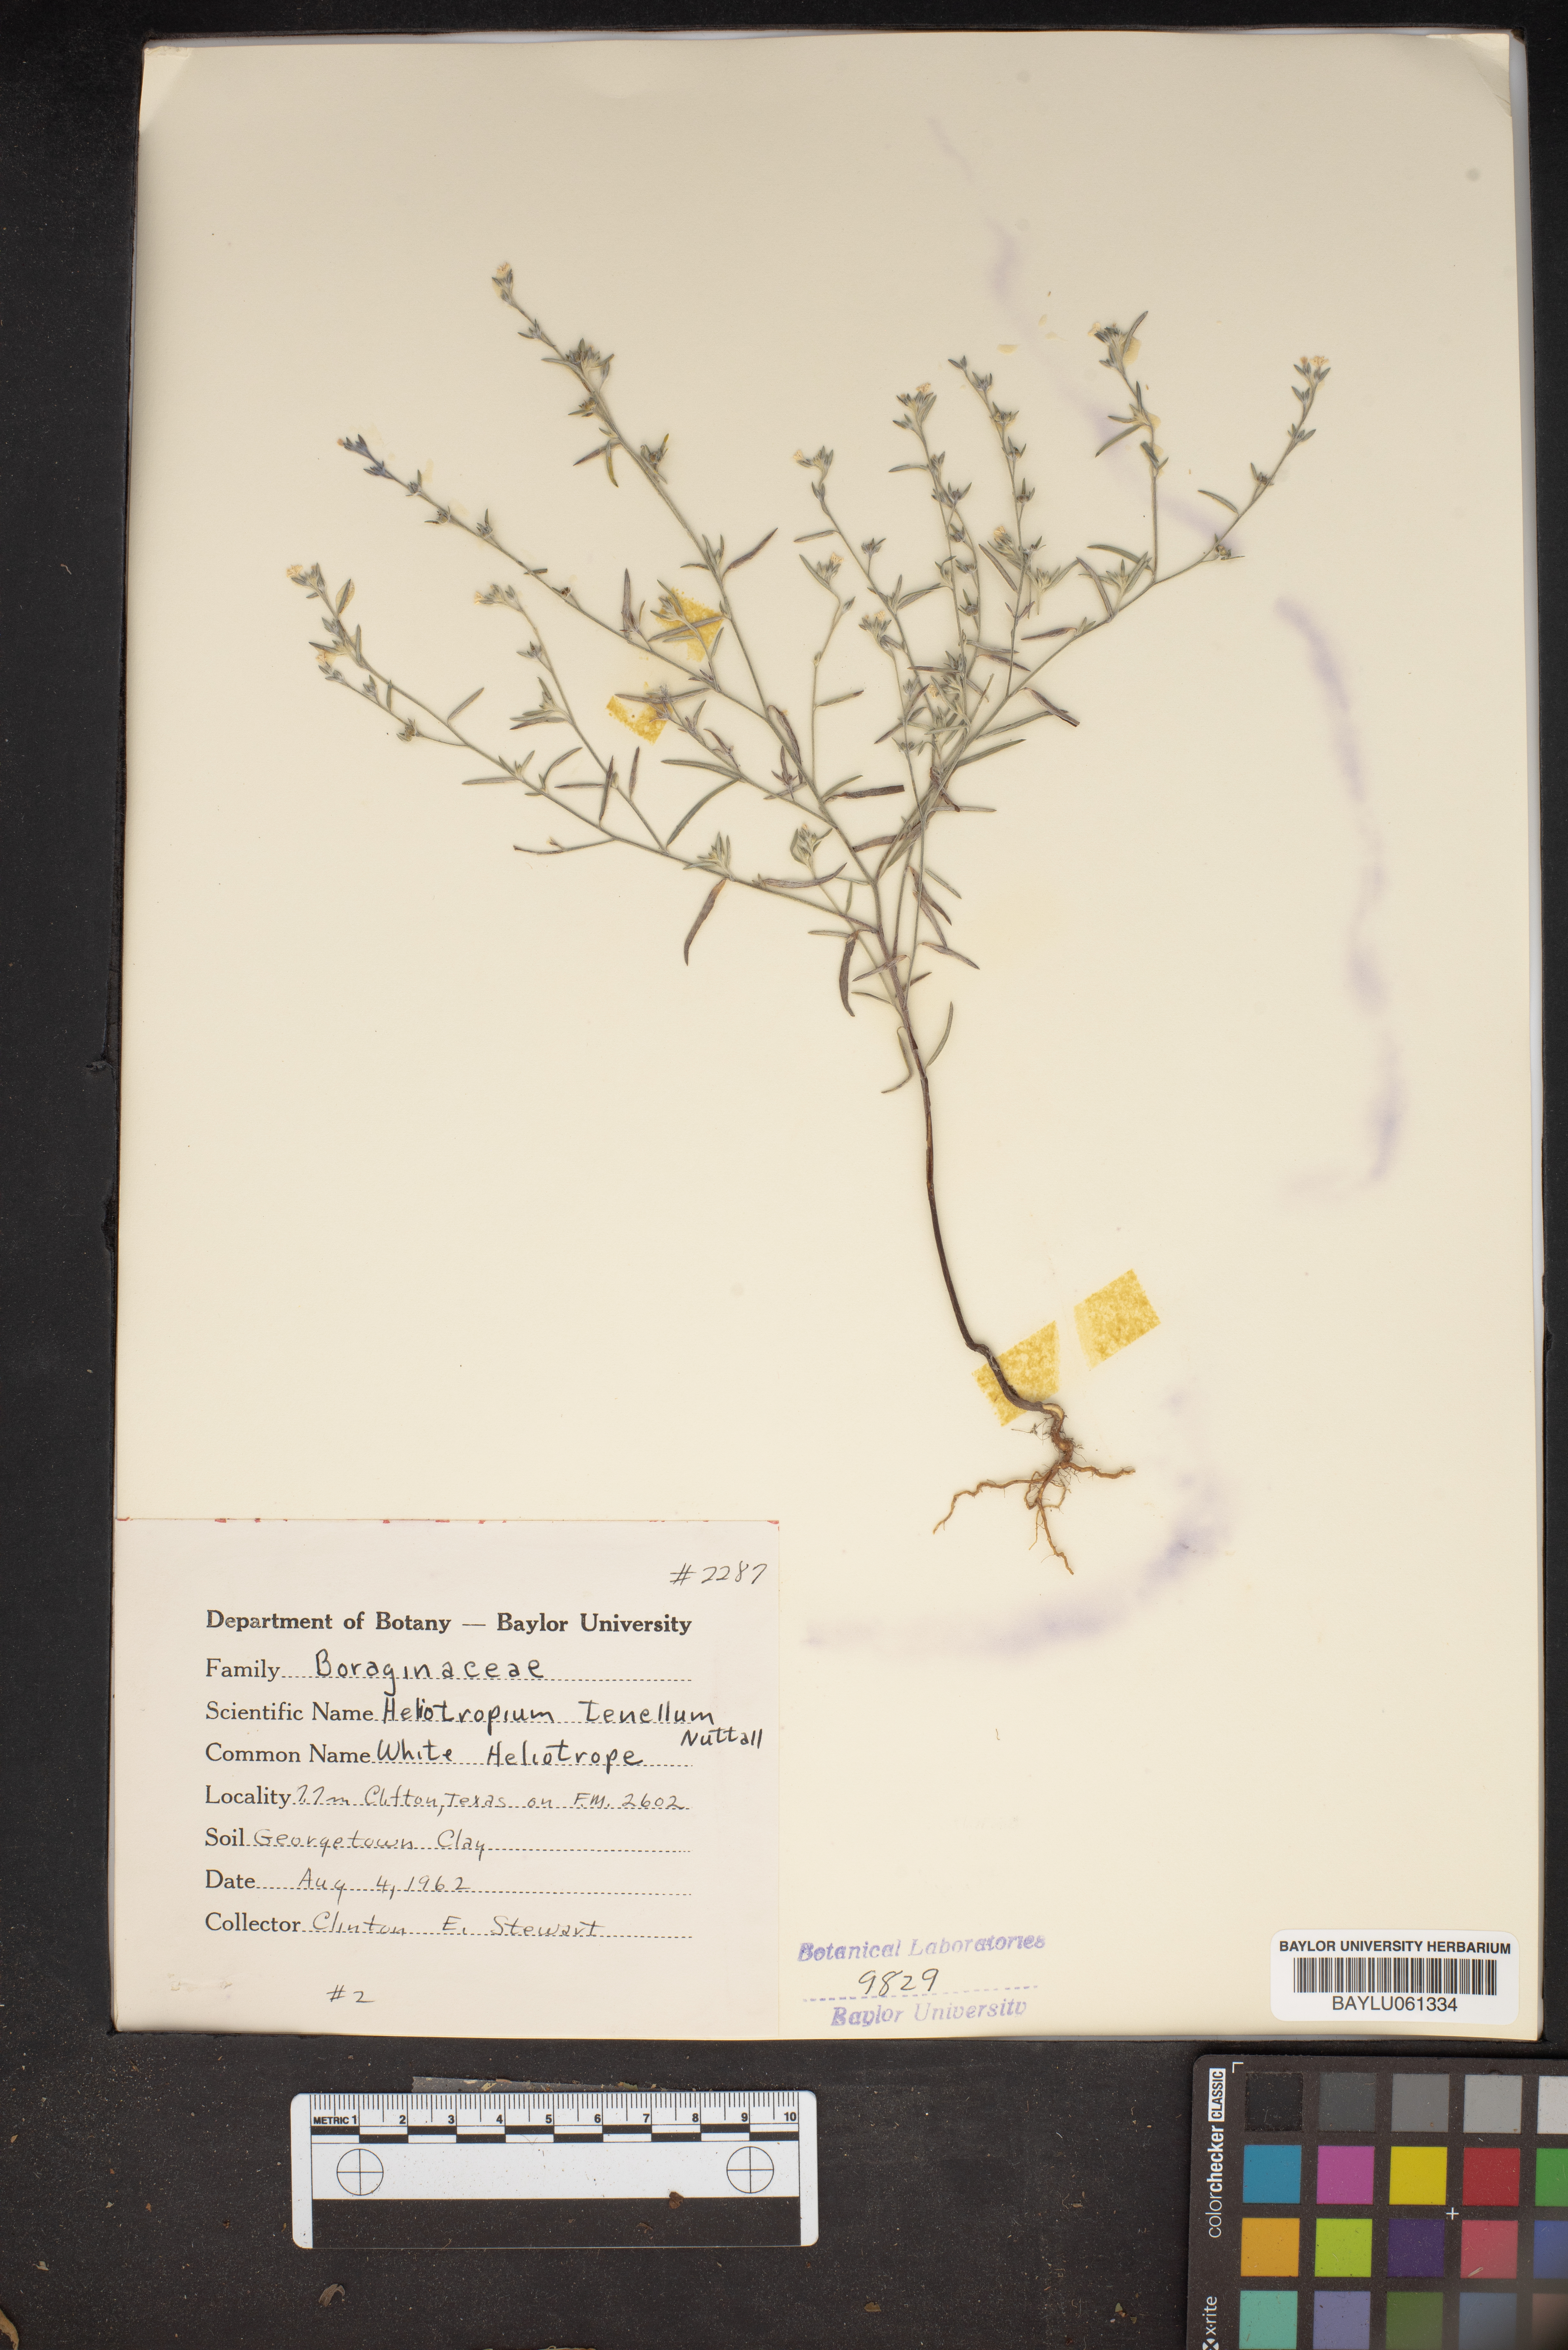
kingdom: Plantae
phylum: Tracheophyta
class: Magnoliopsida
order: Boraginales
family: Heliotropiaceae
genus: Euploca
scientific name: Euploca tenella
